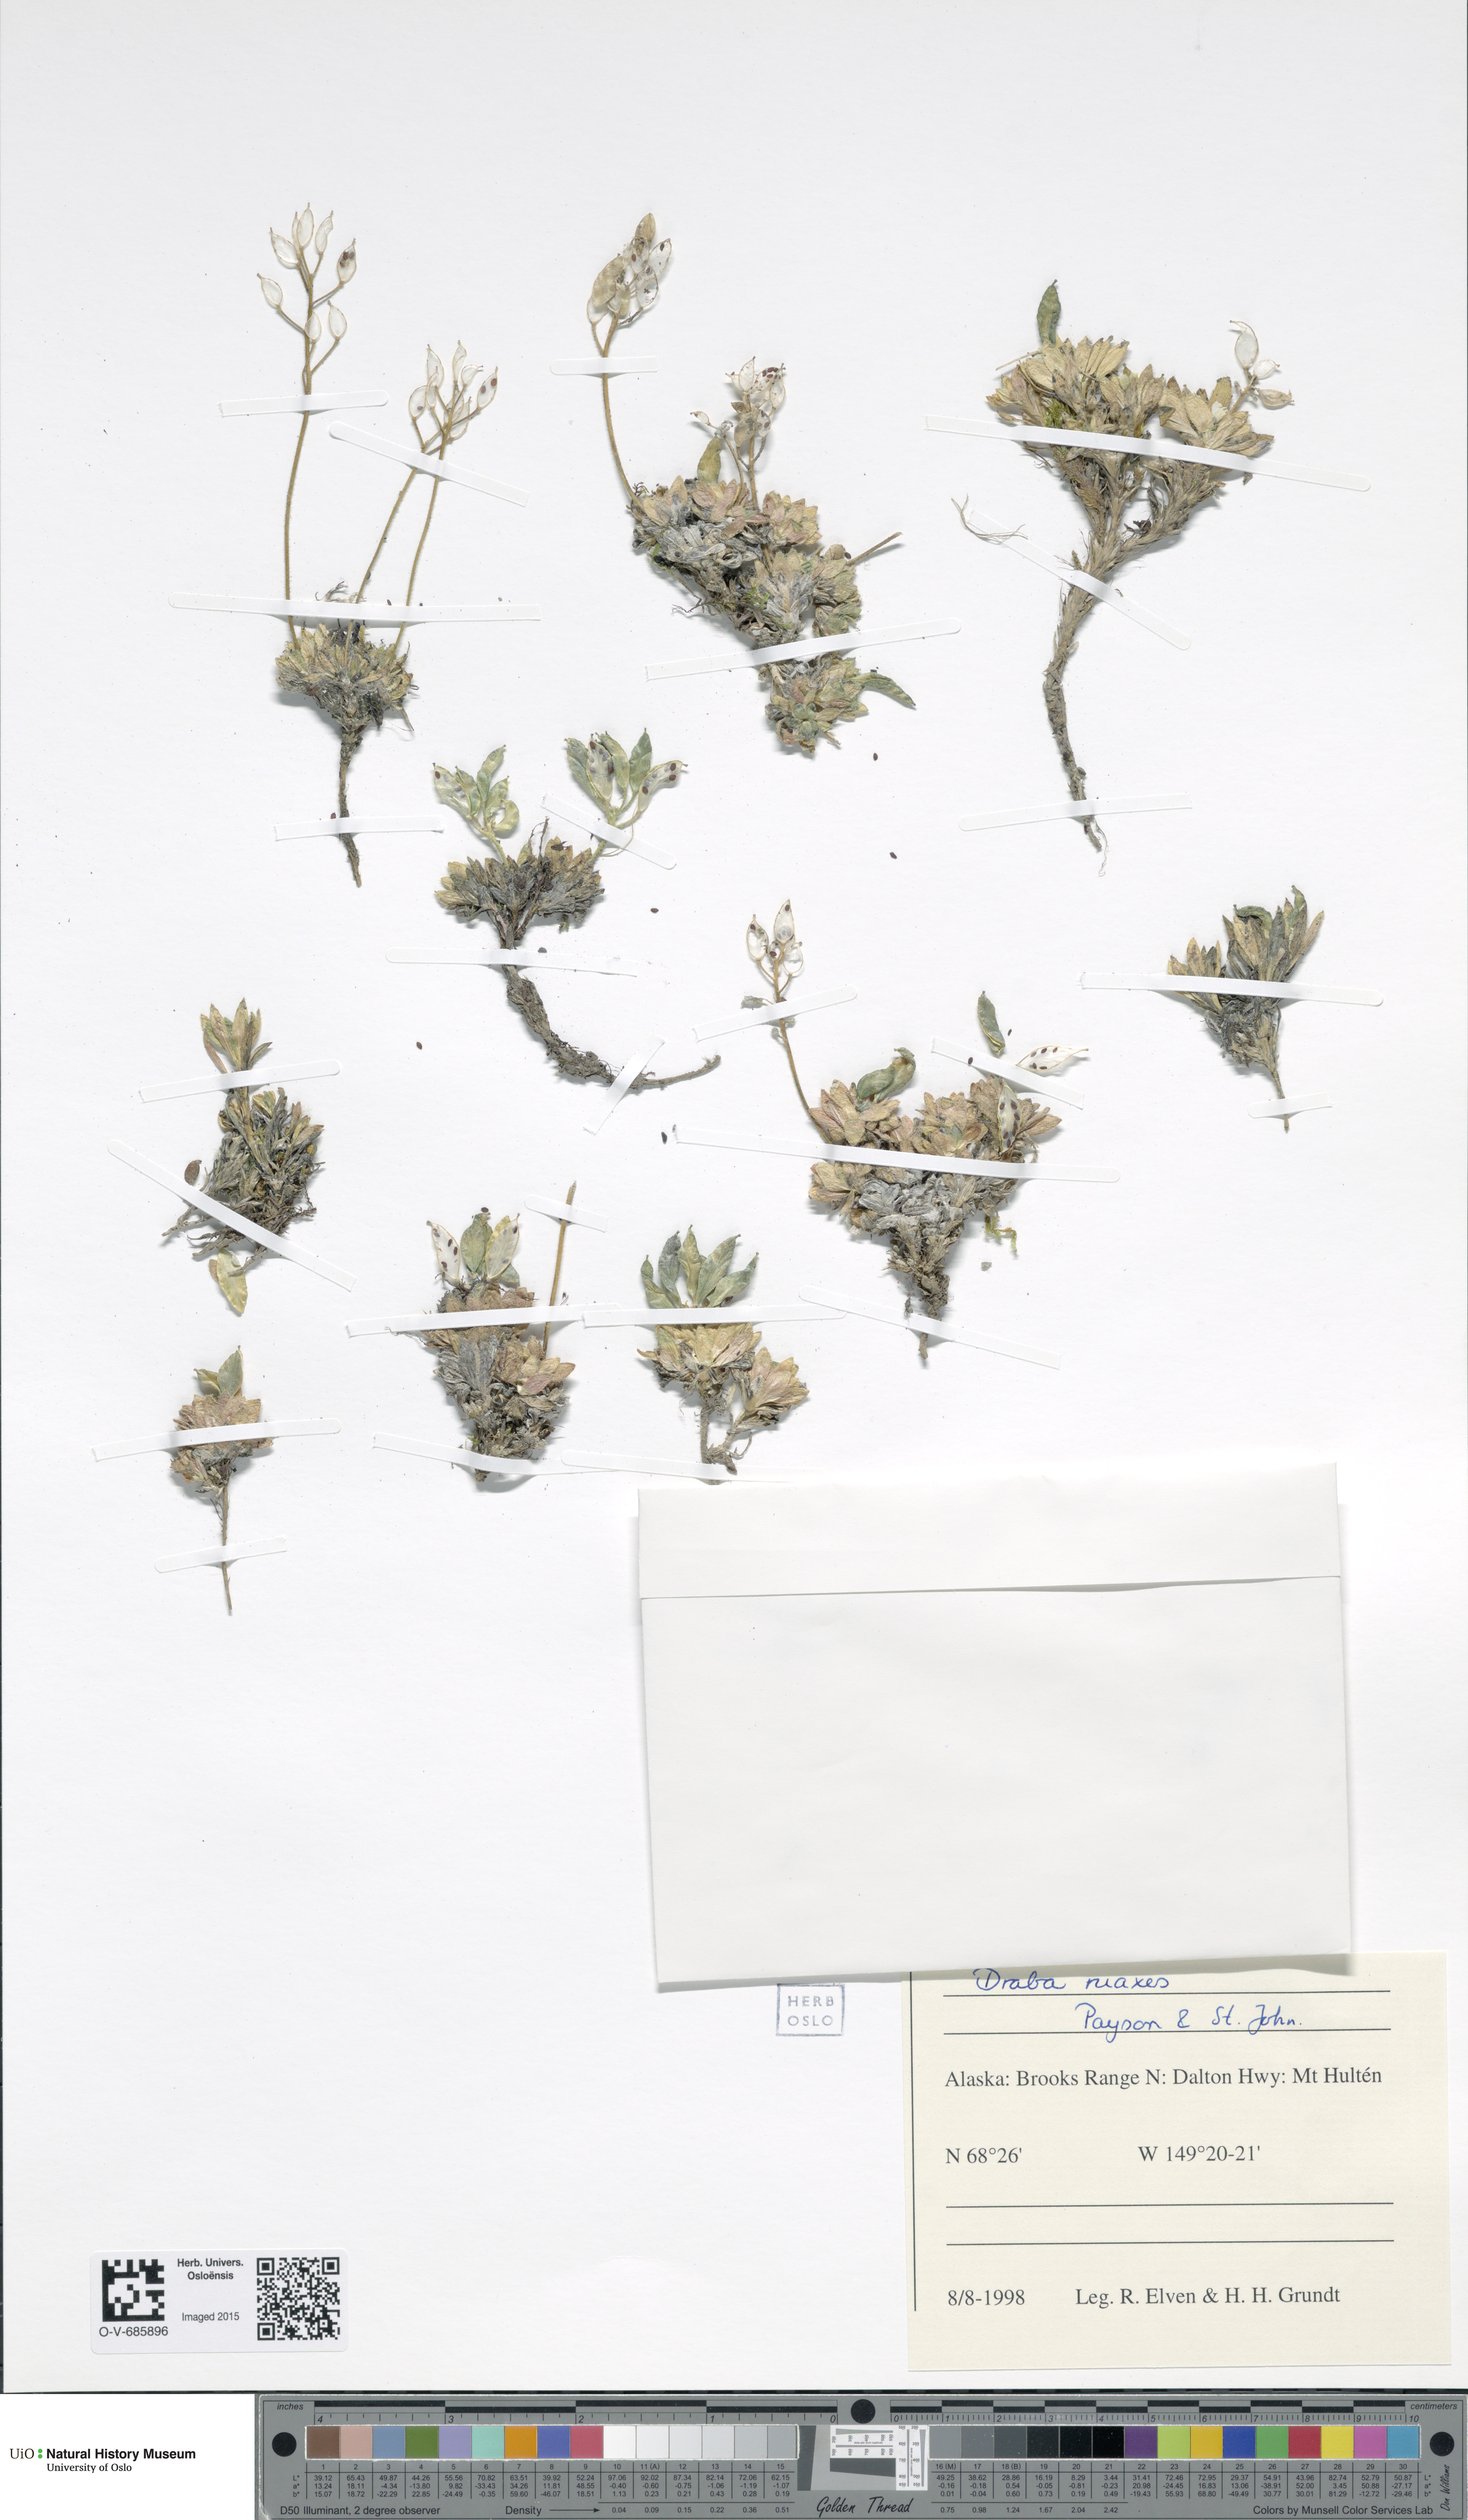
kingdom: Plantae
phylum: Tracheophyta
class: Magnoliopsida
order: Brassicales
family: Brassicaceae
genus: Draba
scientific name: Draba ruaxes
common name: Rainier draba
